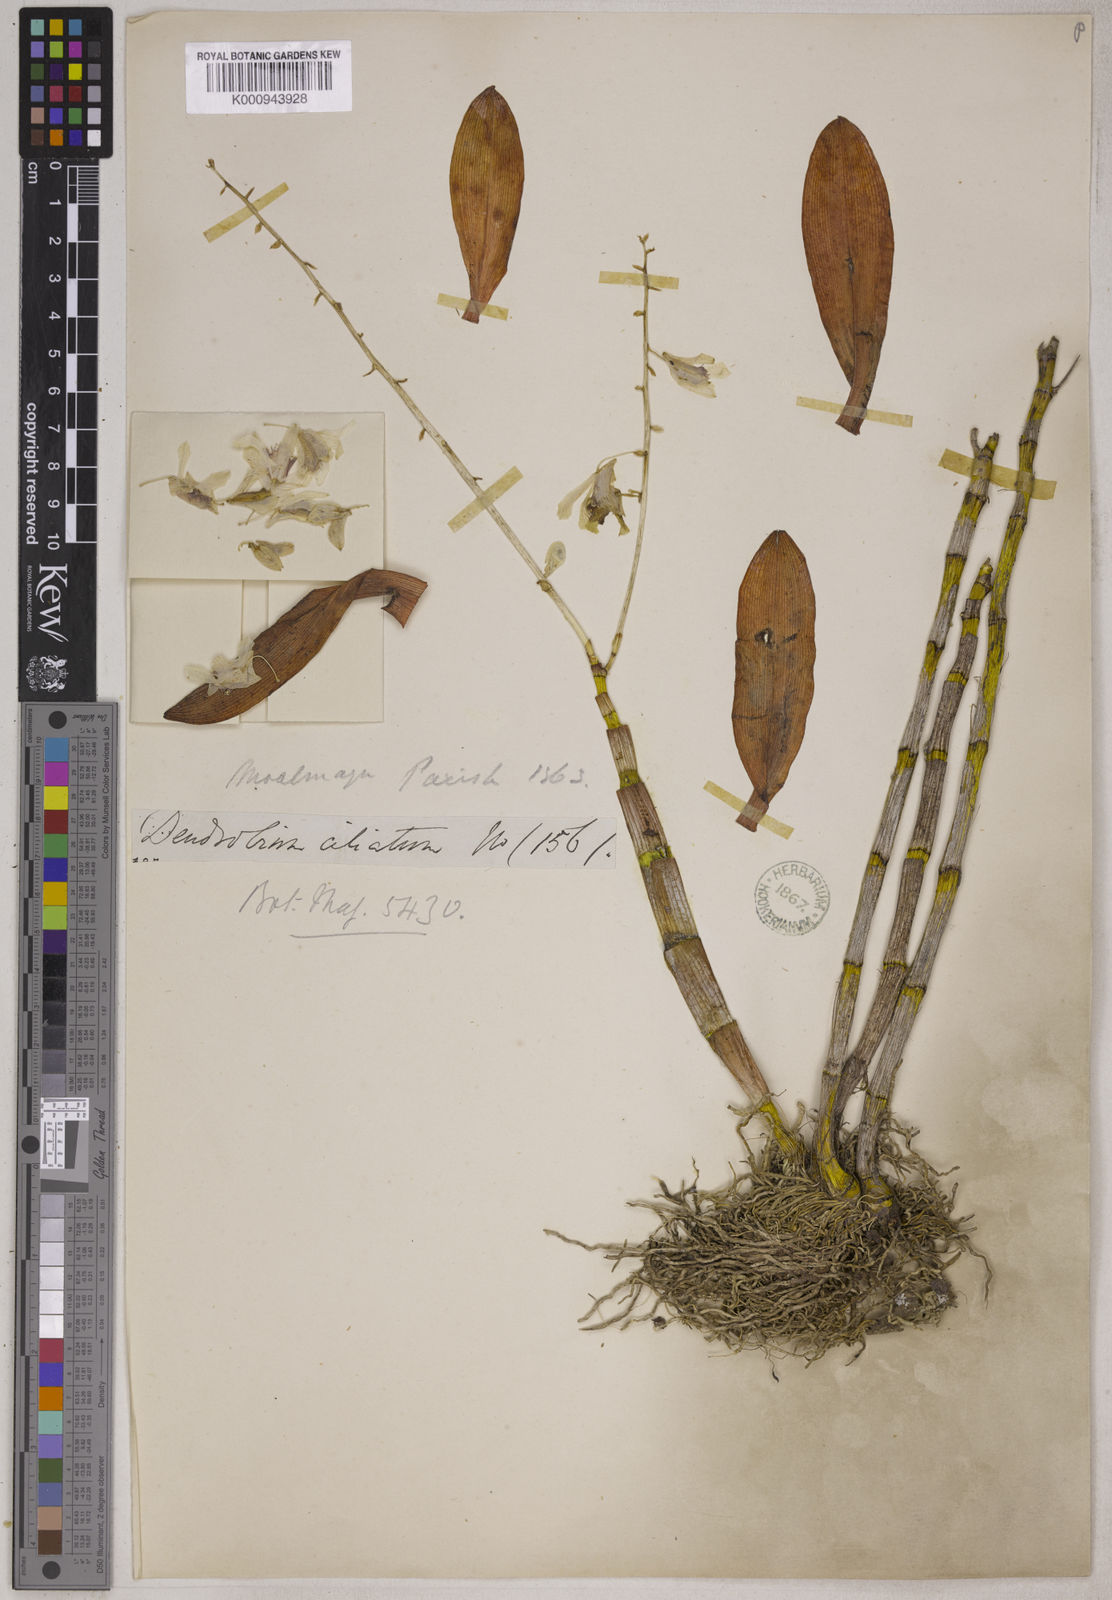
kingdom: Plantae
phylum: Tracheophyta
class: Liliopsida
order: Asparagales
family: Orchidaceae
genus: Dendrobium
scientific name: Dendrobium venustum
